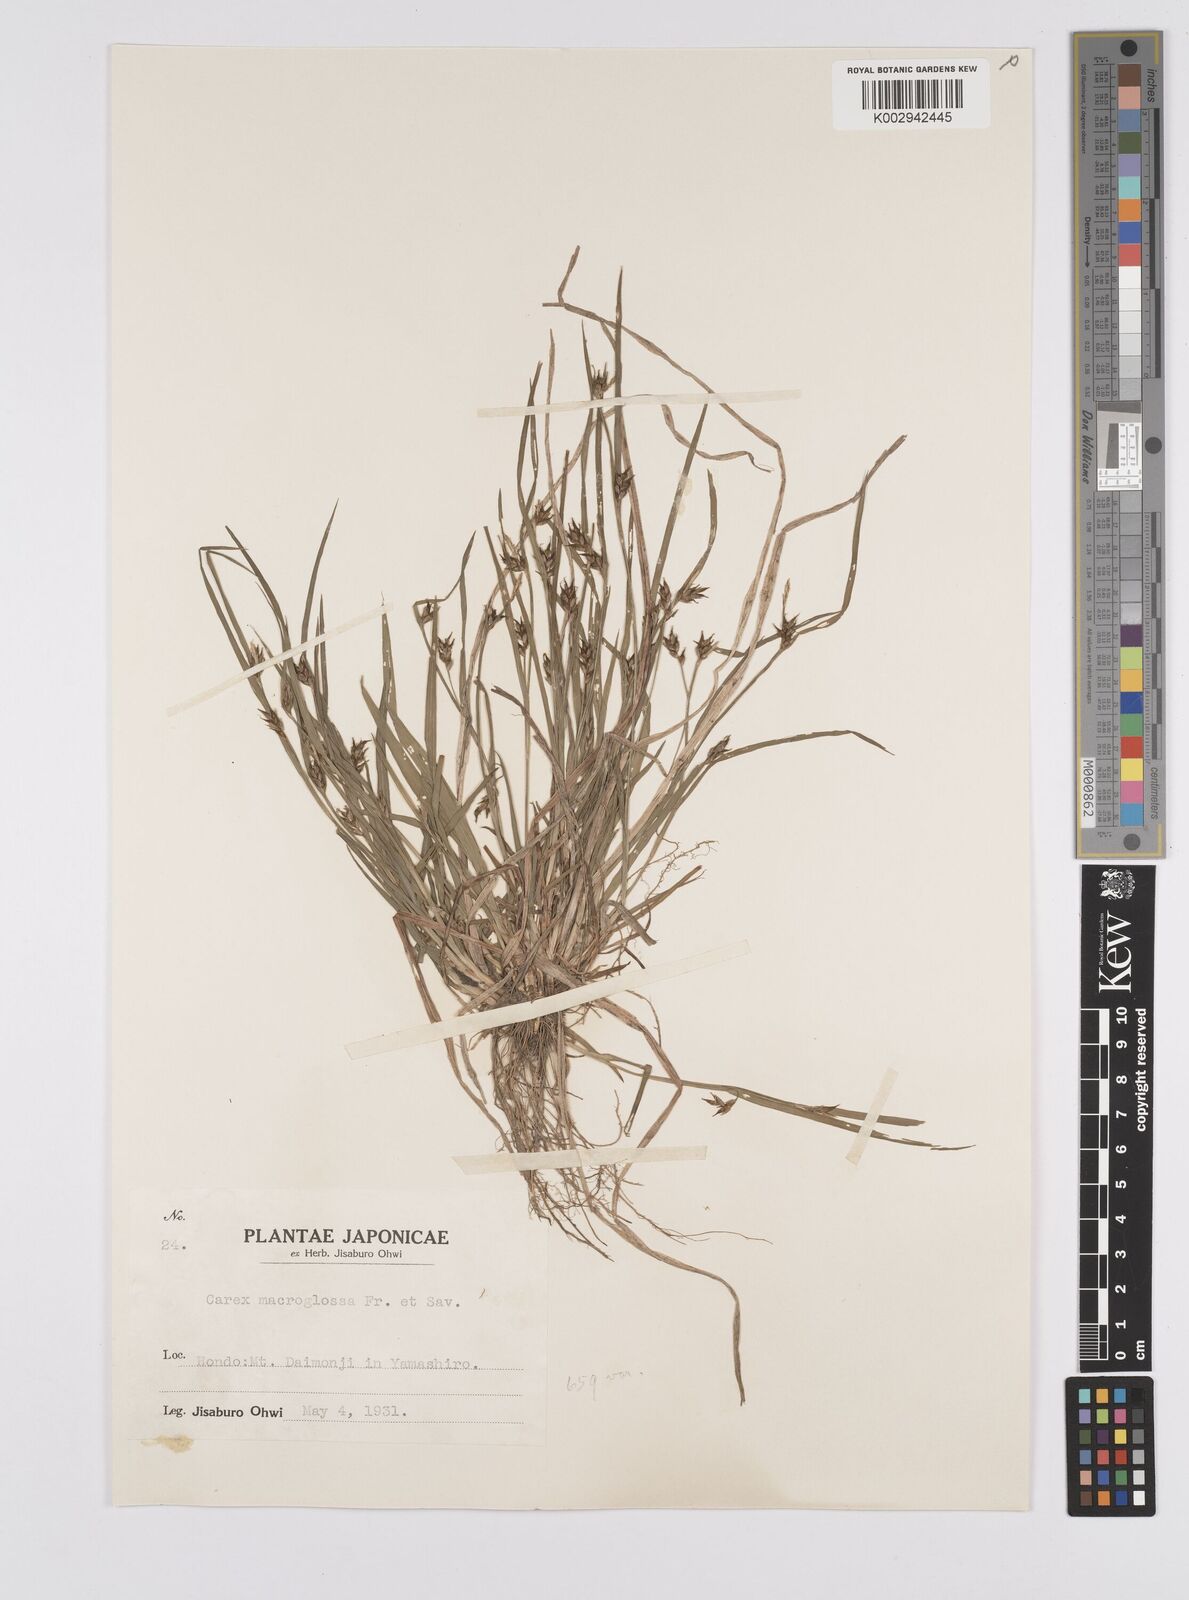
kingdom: Plantae
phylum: Tracheophyta
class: Liliopsida
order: Poales
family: Cyperaceae
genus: Carex
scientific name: Carex jackiana
